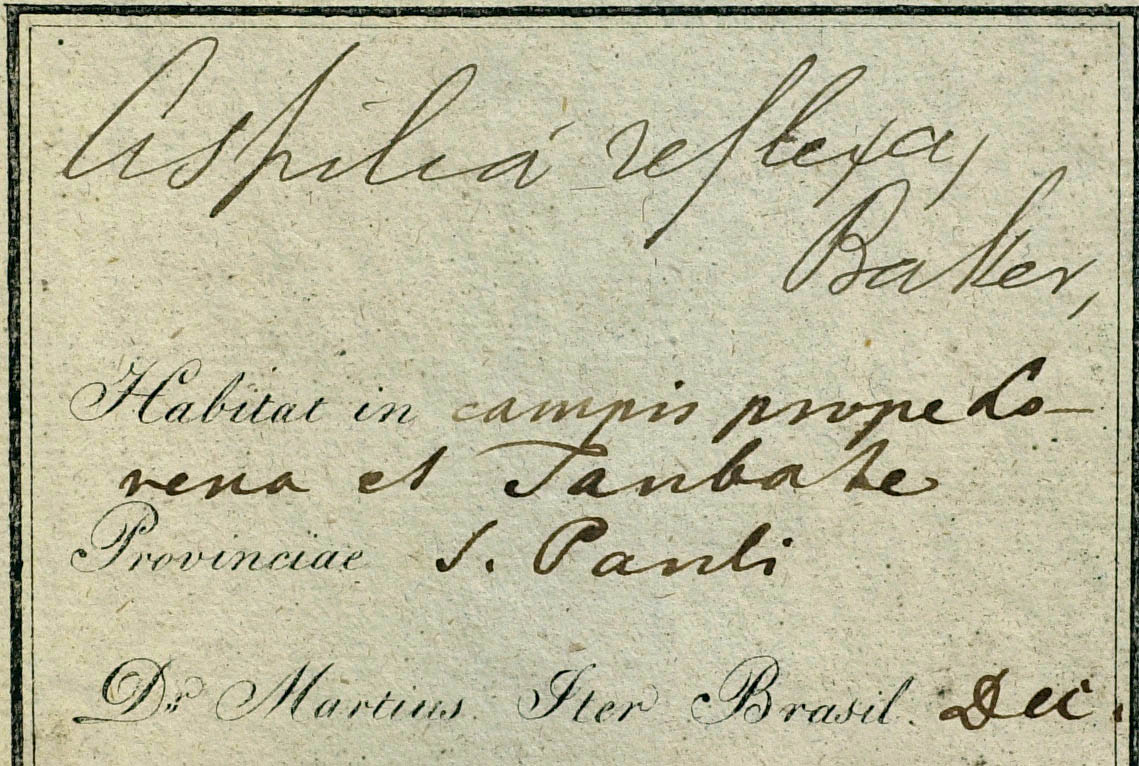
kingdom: Plantae
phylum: Tracheophyta
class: Magnoliopsida
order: Asterales
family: Asteraceae
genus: Wedelia
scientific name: Wedelia reflexa
